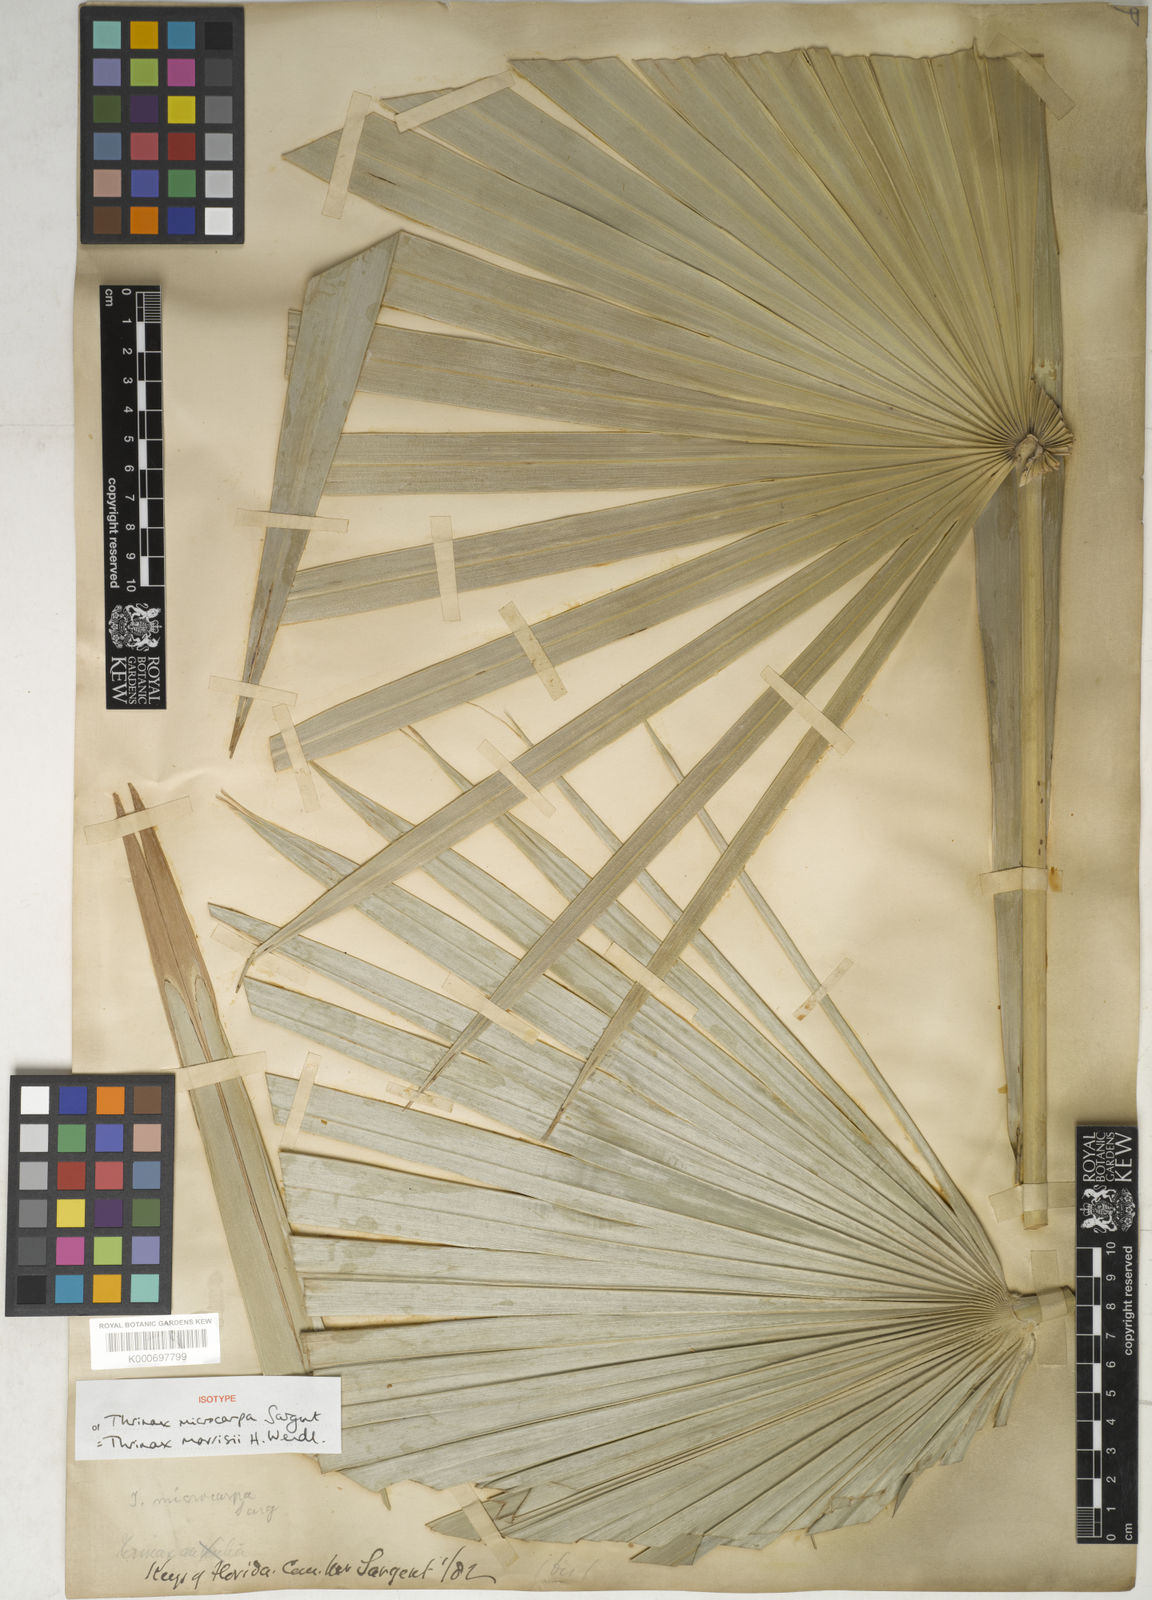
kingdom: Plantae
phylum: Tracheophyta
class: Liliopsida
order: Arecales
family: Arecaceae
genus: Leucothrinax
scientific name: Leucothrinax morrisii
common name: Key palm
